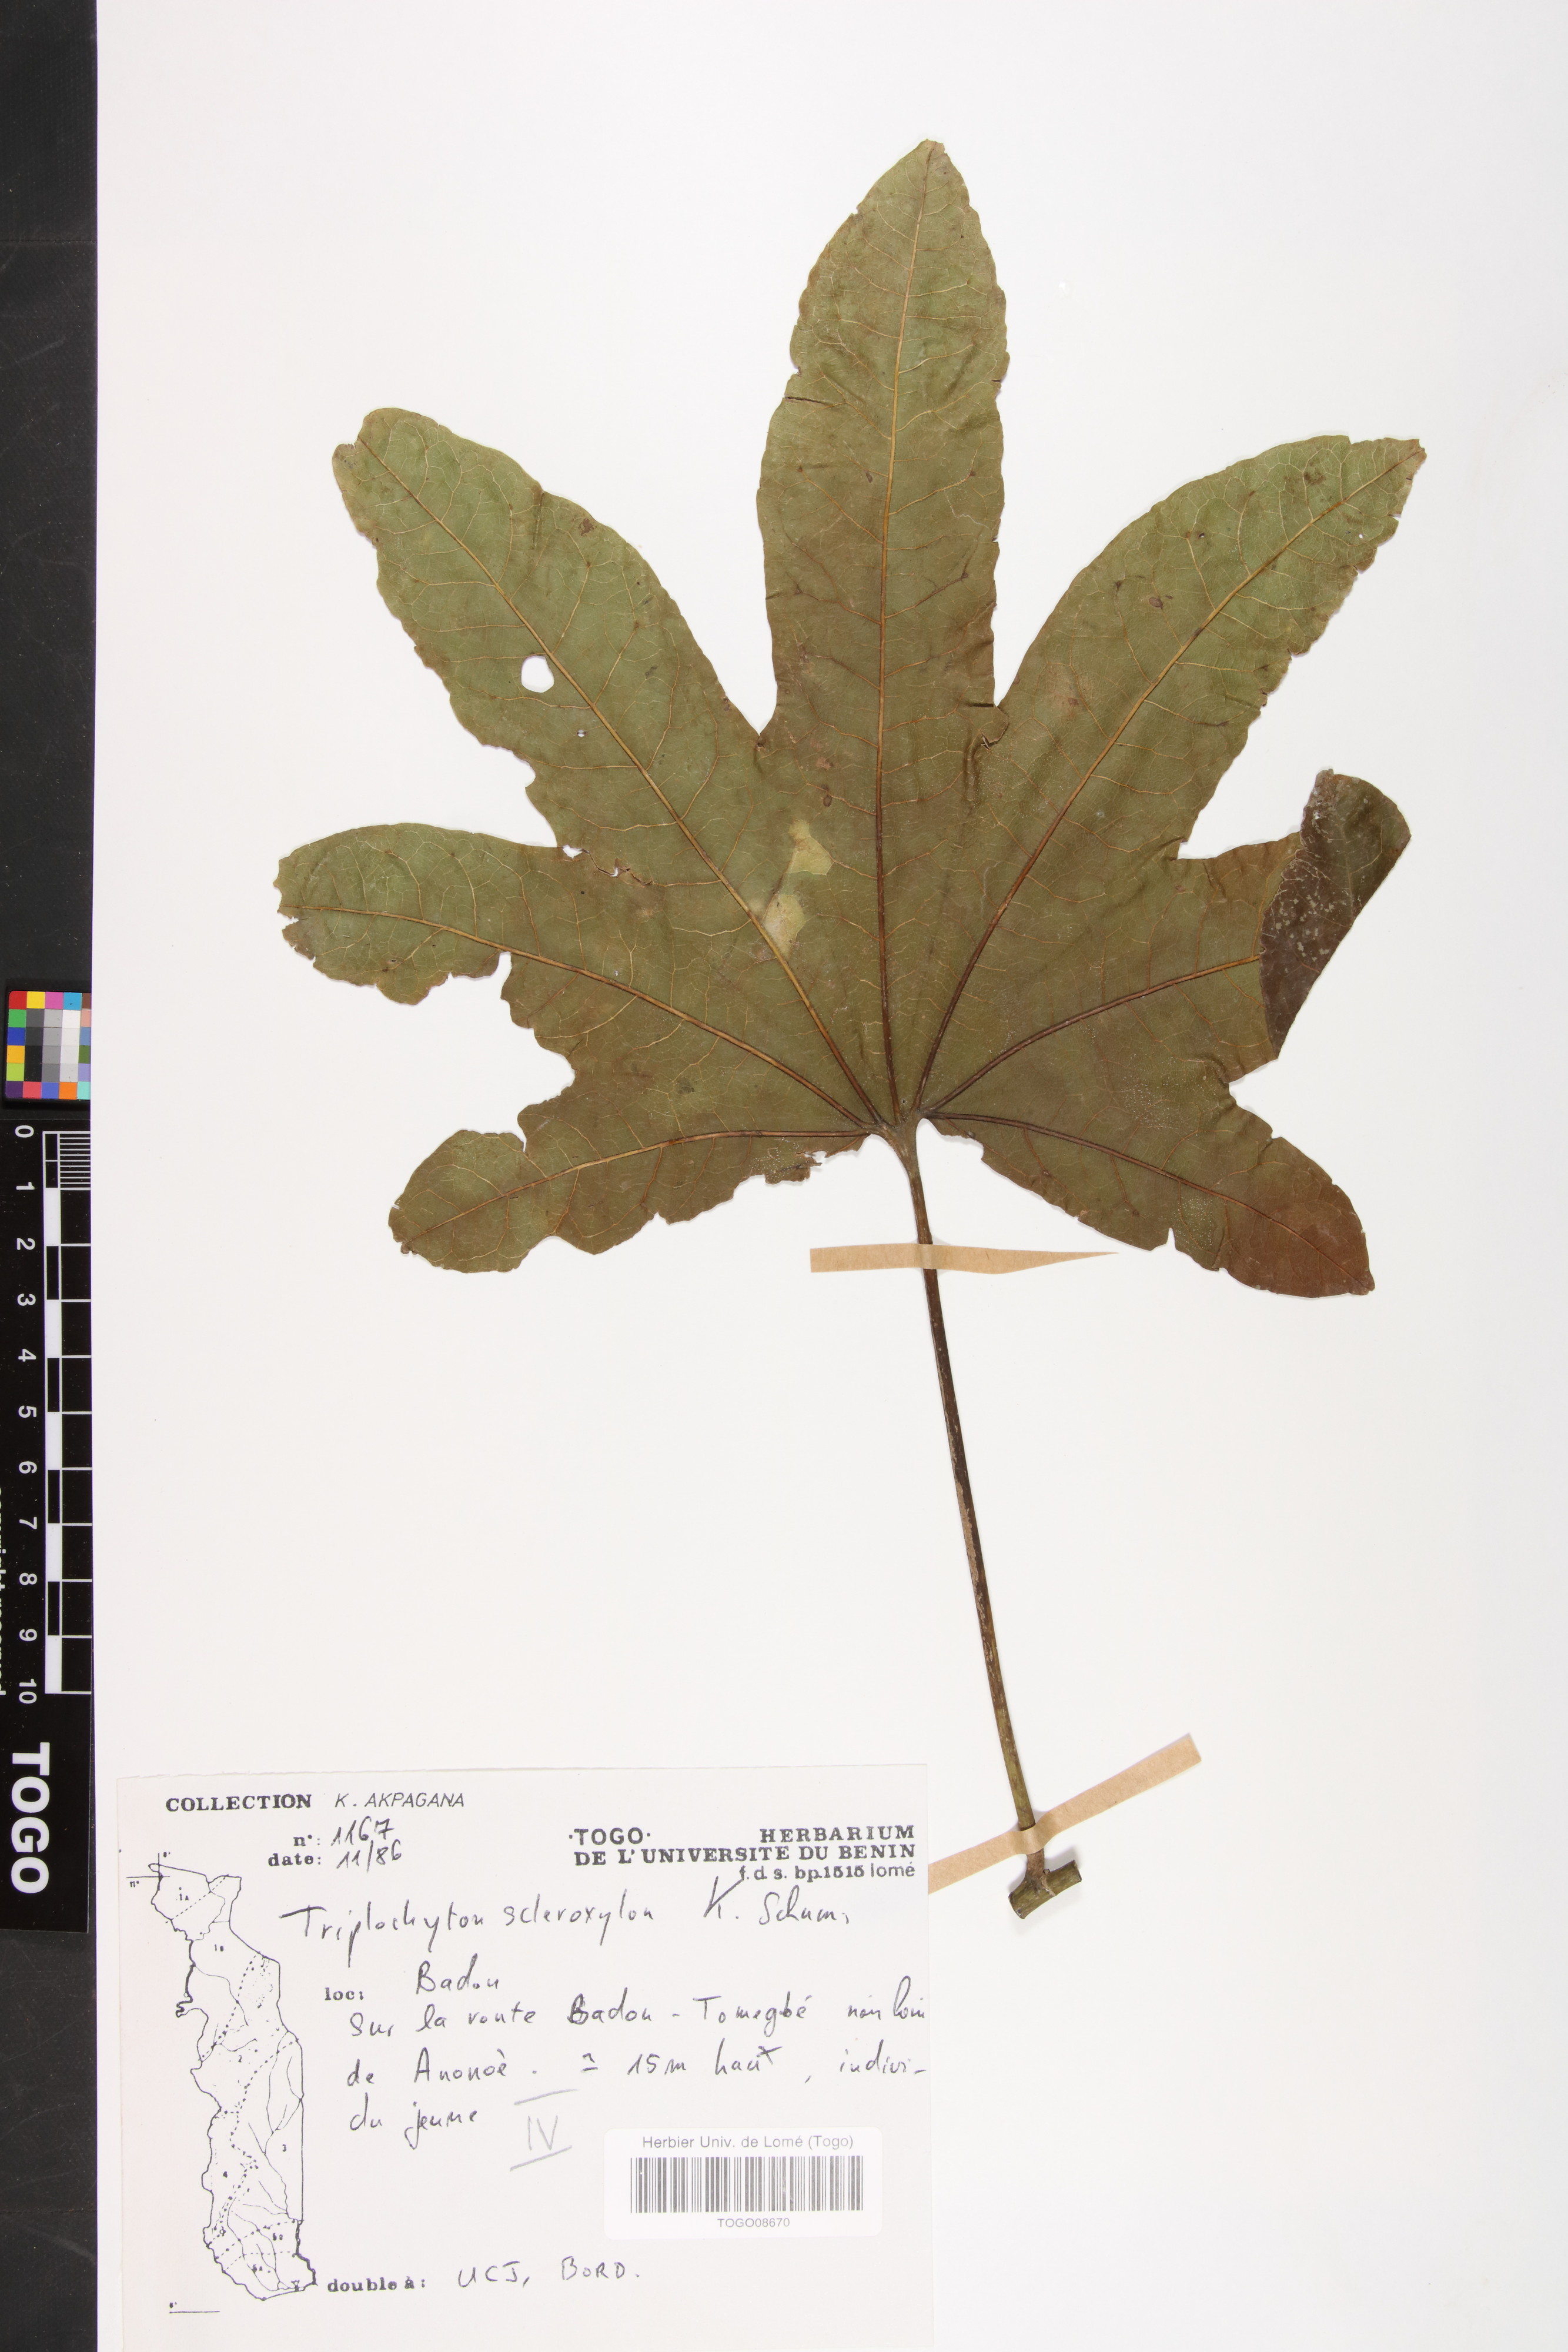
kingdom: Plantae
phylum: Tracheophyta
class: Magnoliopsida
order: Malvales
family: Malvaceae
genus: Triplochiton
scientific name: Triplochiton scleroxylon
